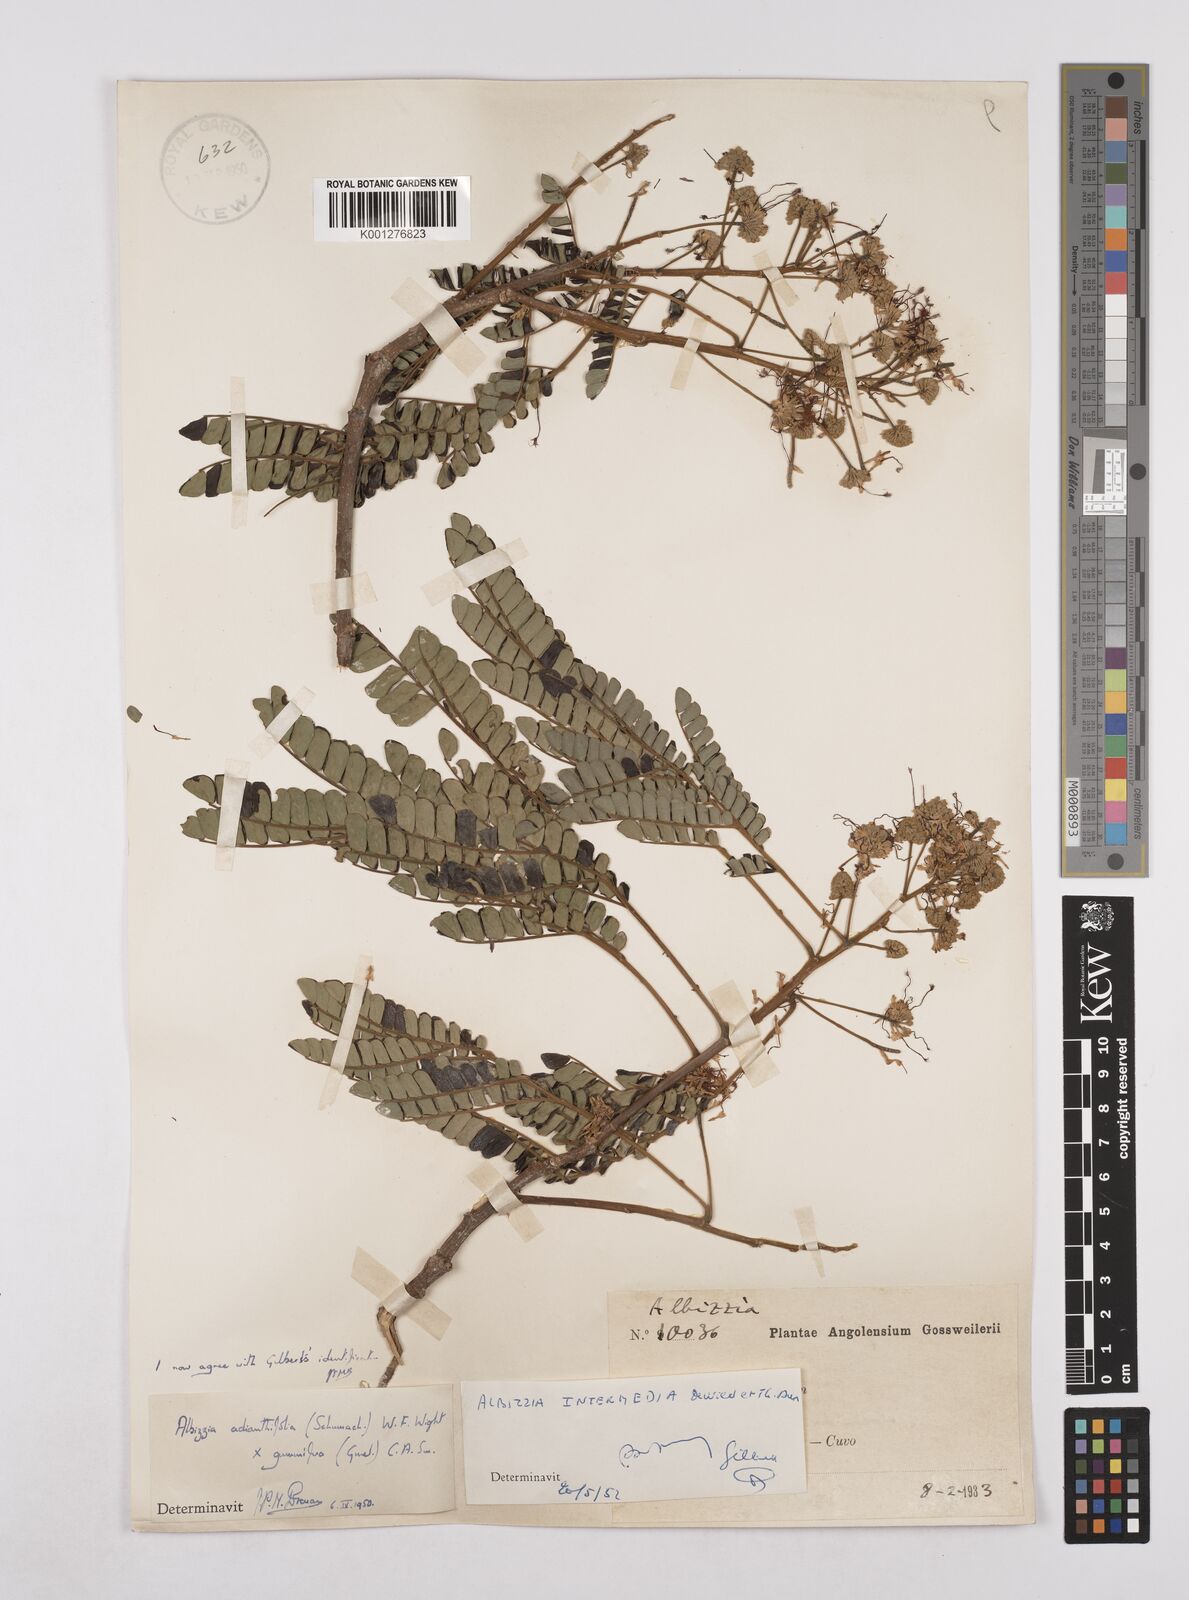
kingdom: Plantae
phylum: Tracheophyta
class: Magnoliopsida
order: Fabales
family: Fabaceae
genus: Albizia
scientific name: Albizia
